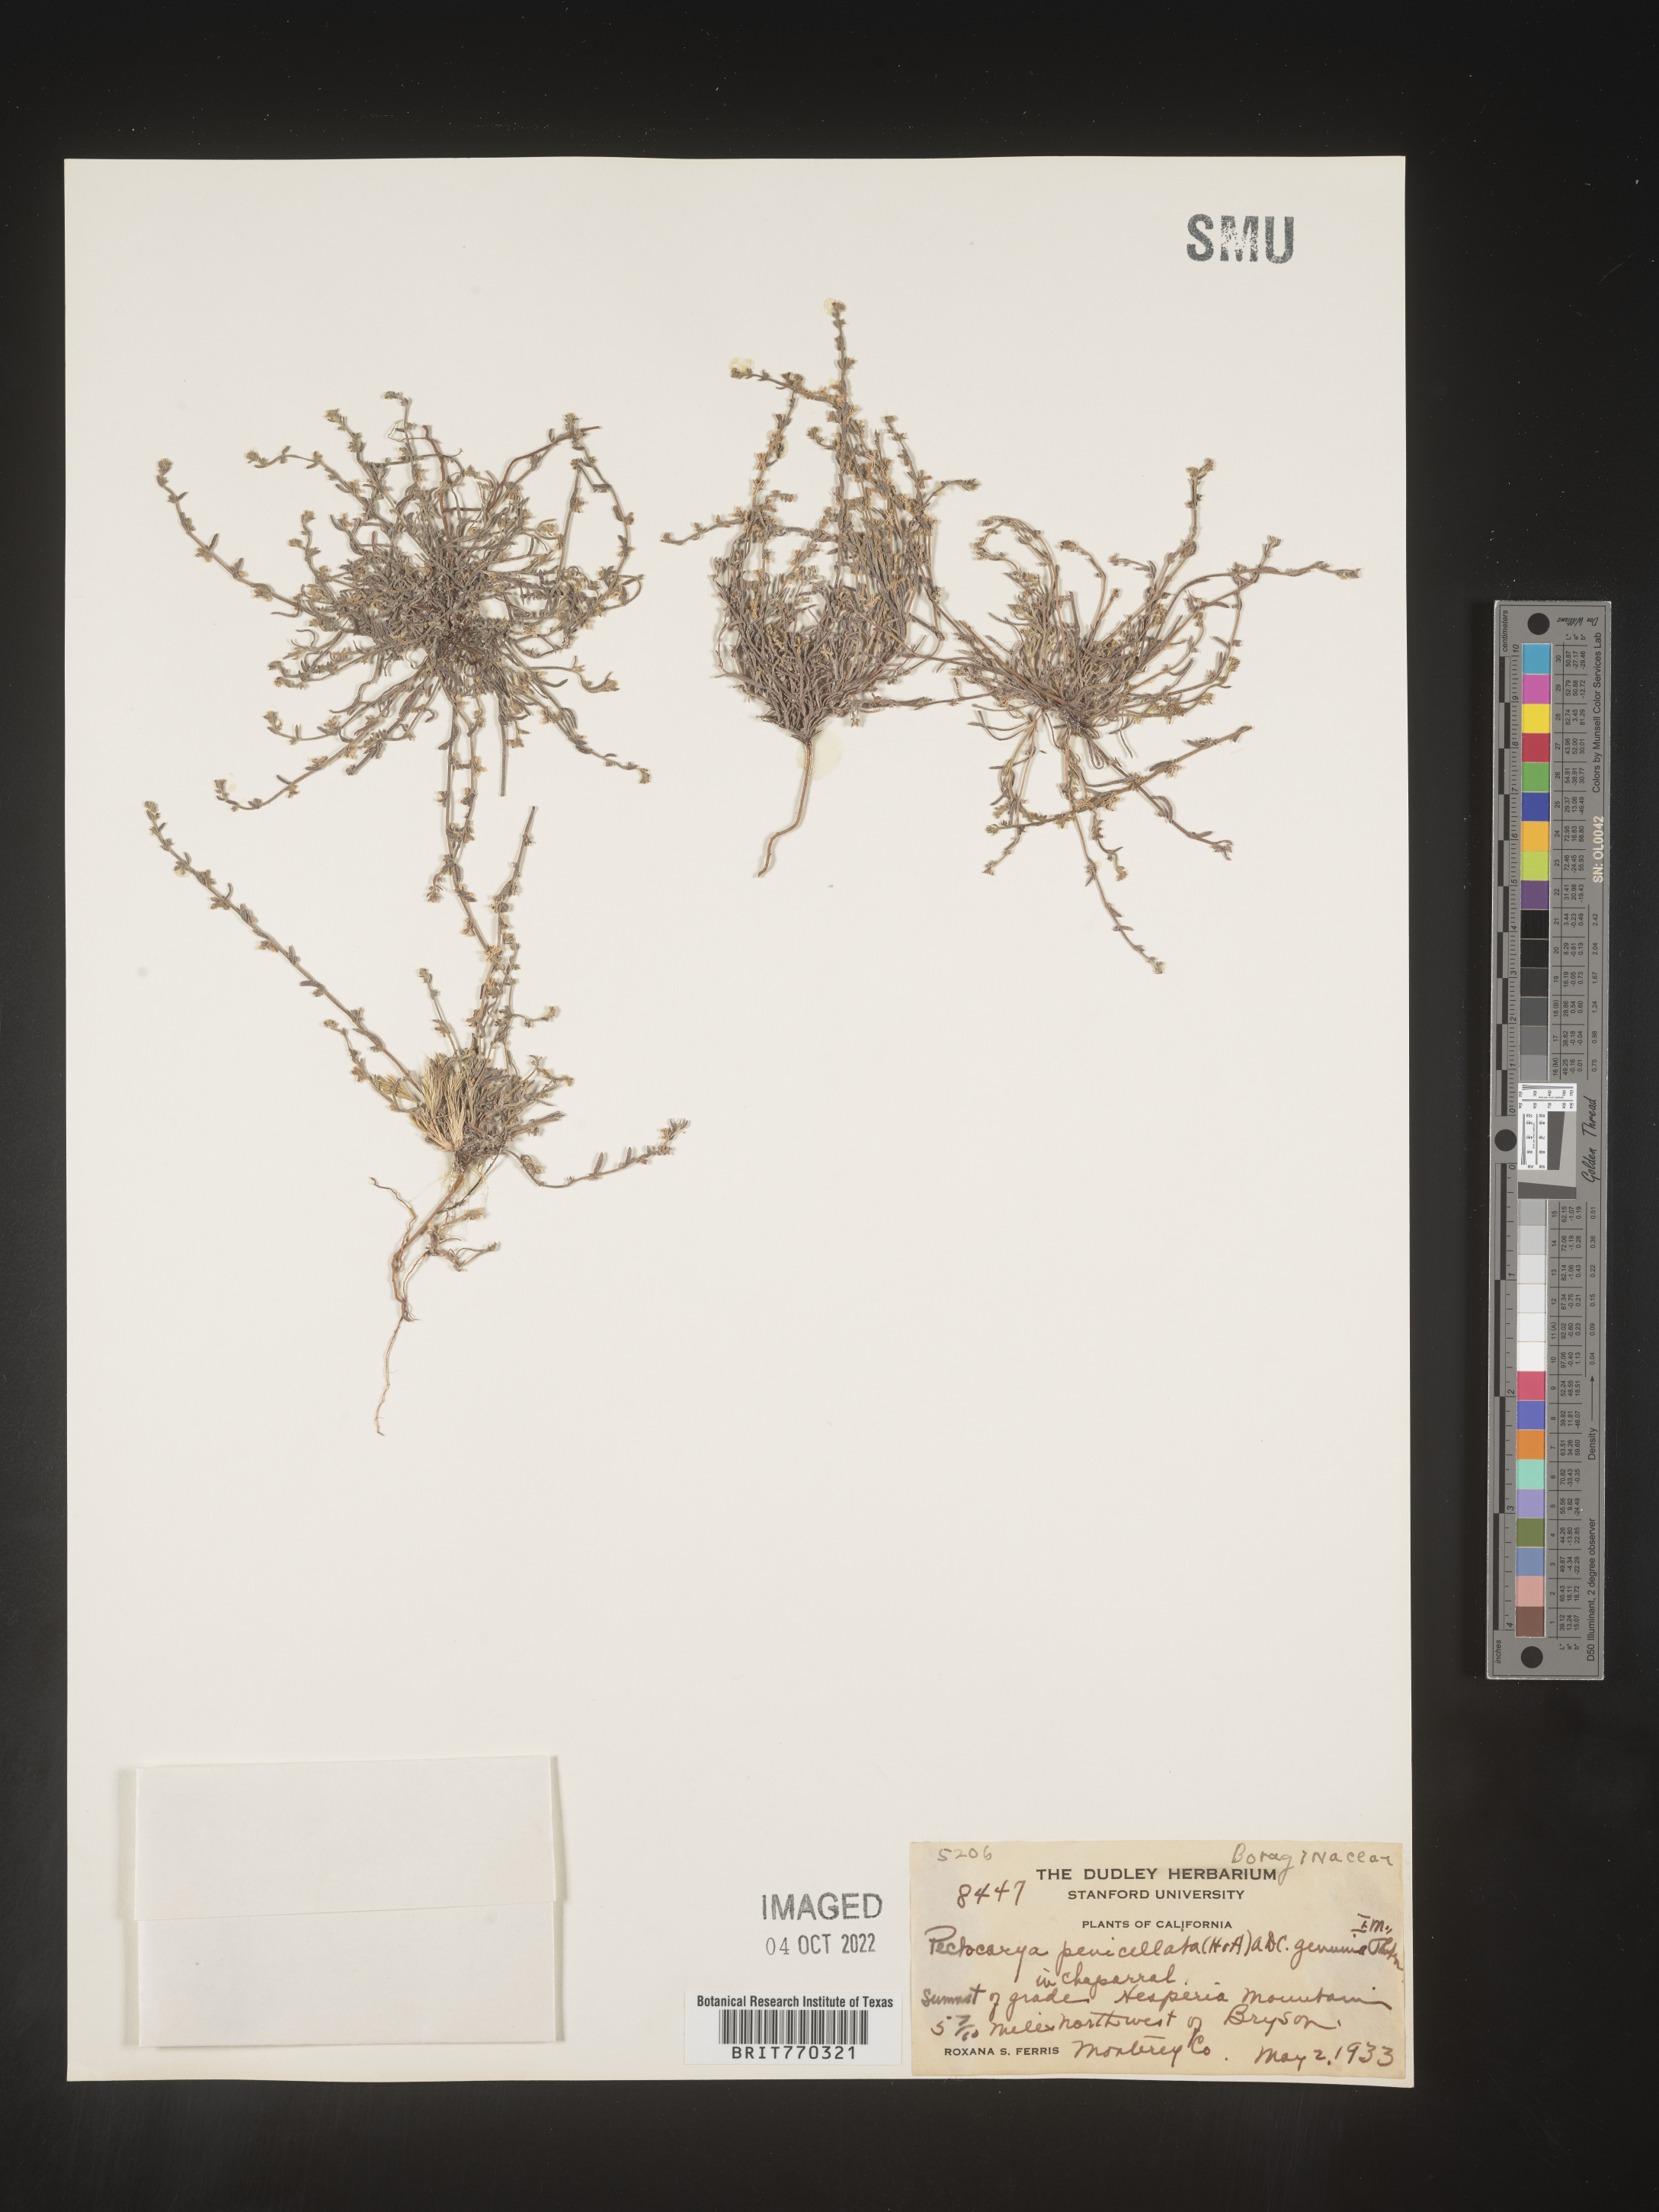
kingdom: Plantae
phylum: Tracheophyta
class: Magnoliopsida
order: Boraginales
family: Boraginaceae
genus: Pectocarya
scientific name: Pectocarya
